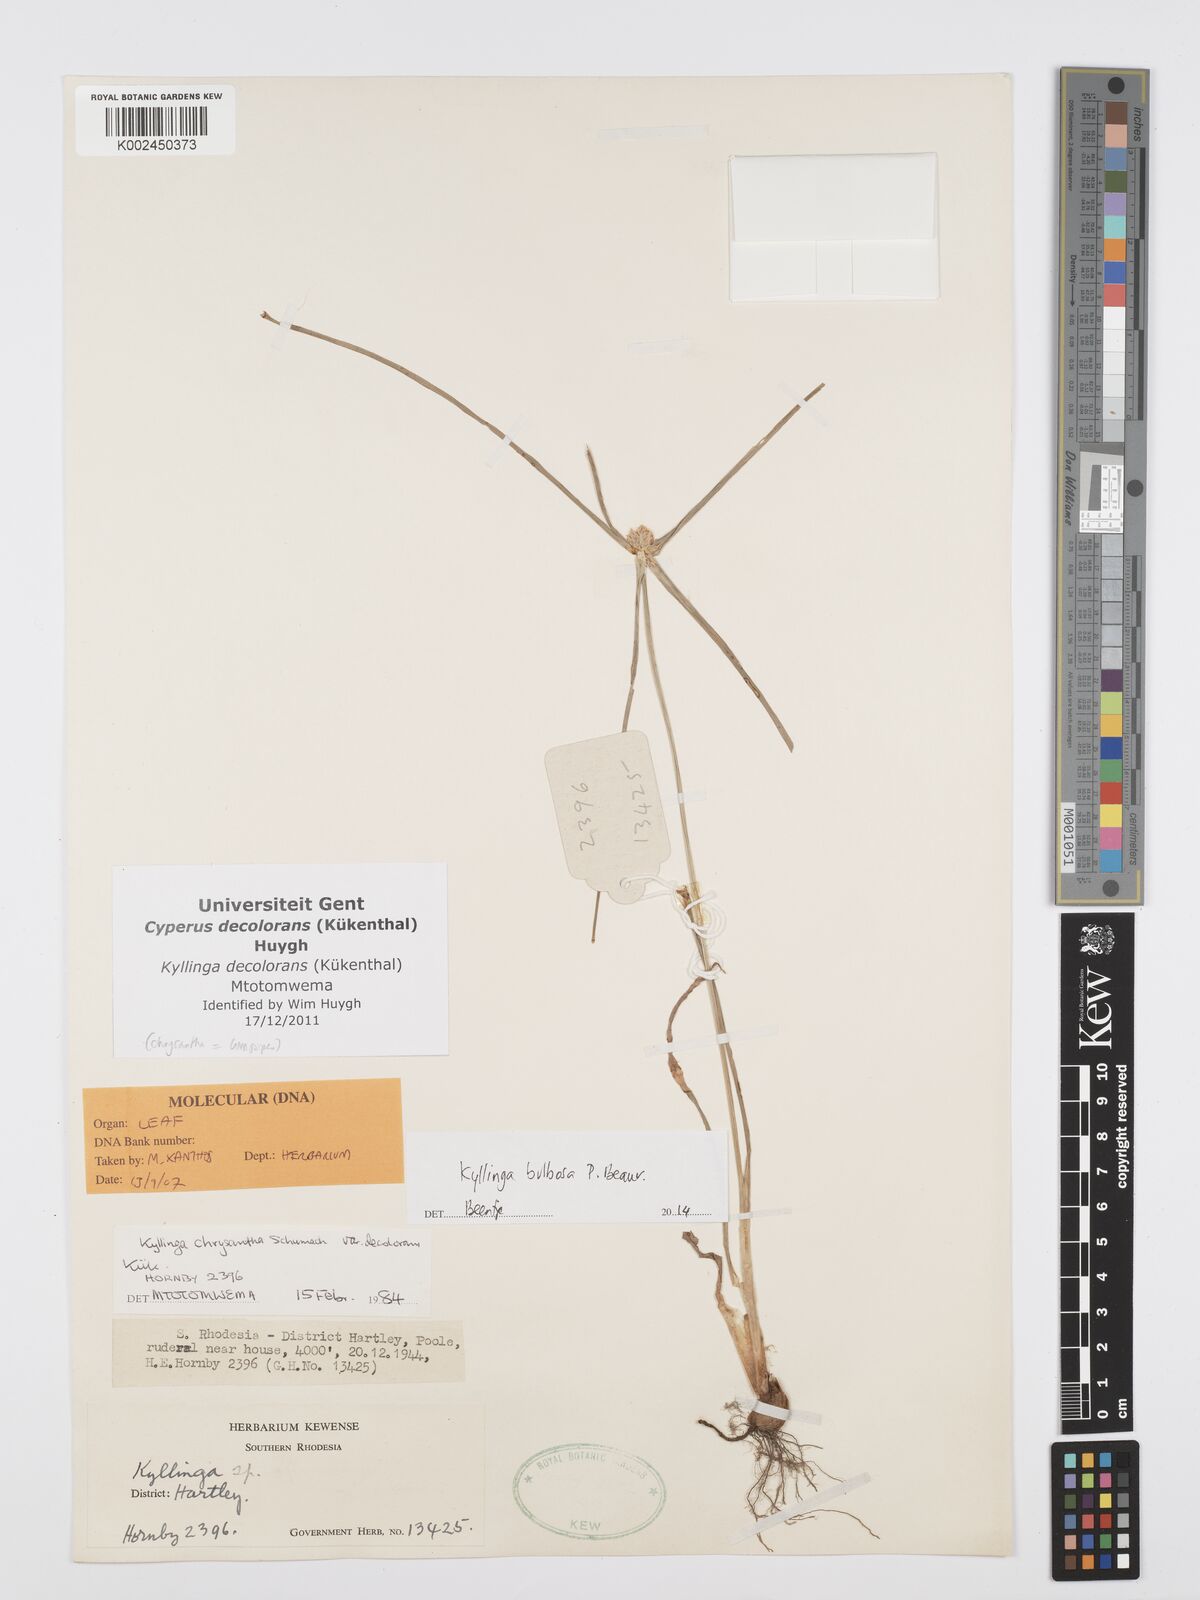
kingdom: Plantae
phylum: Tracheophyta
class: Liliopsida
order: Poales
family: Cyperaceae
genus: Cyperus
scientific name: Cyperus
